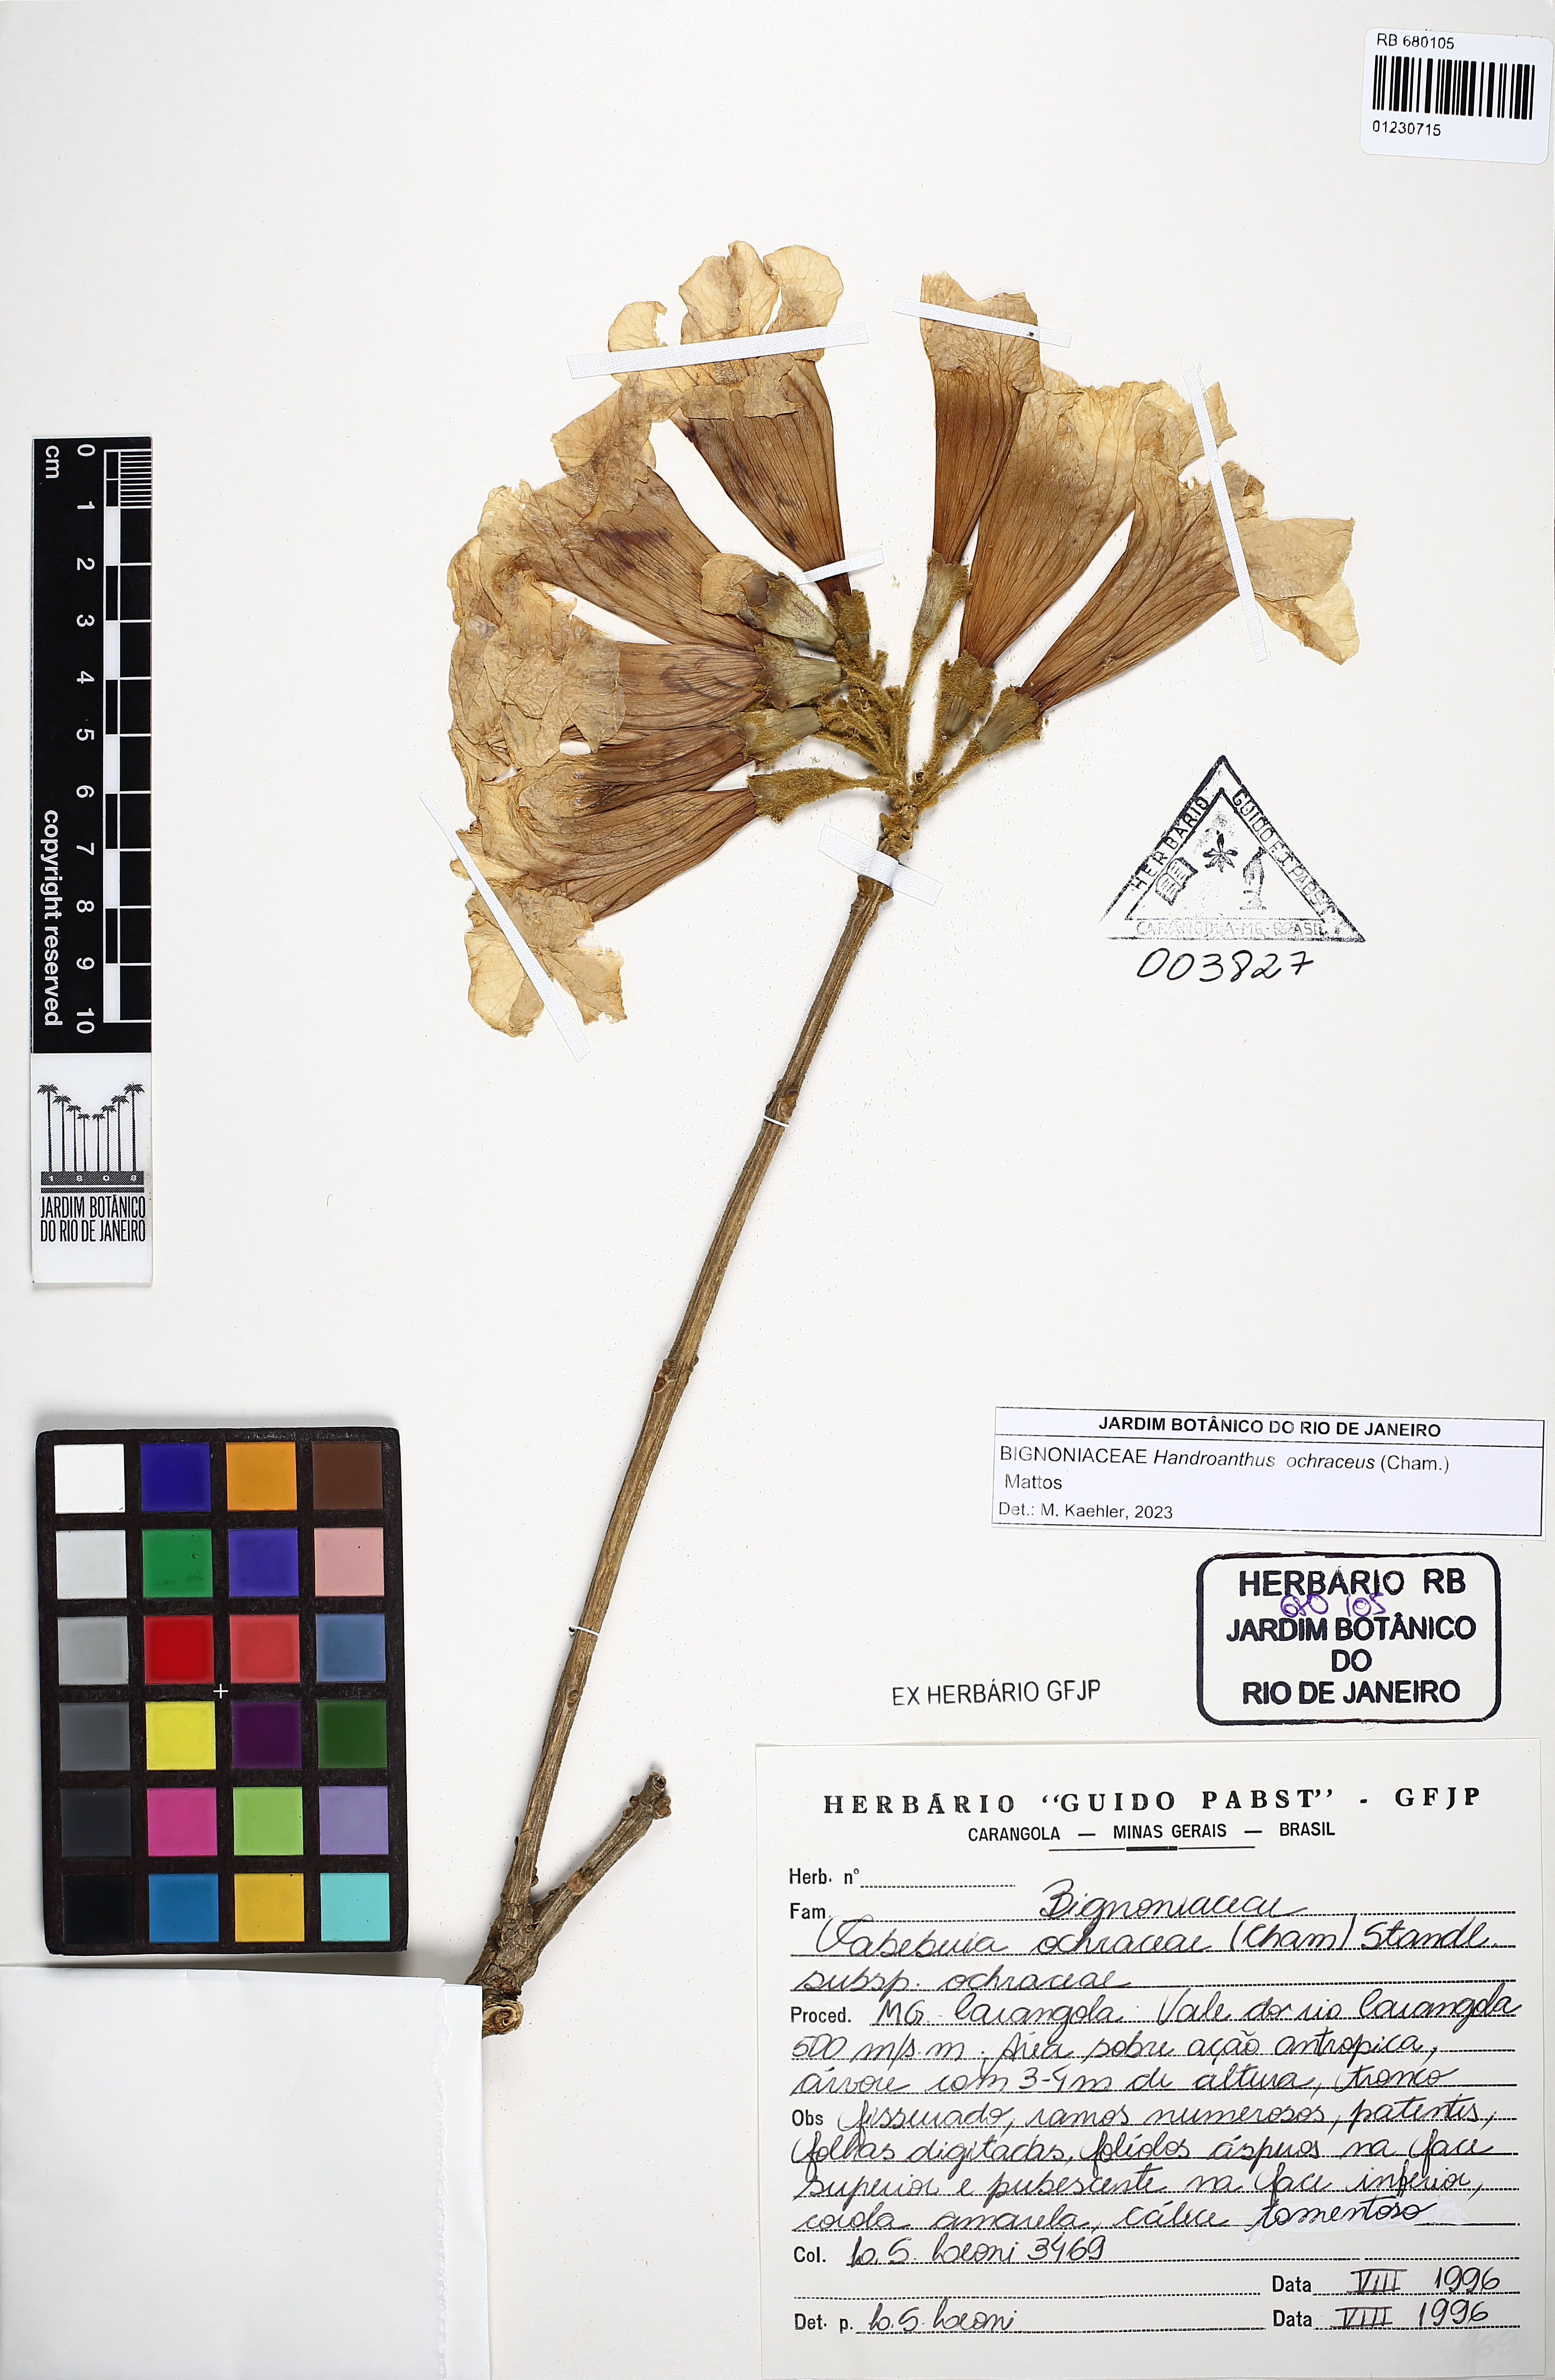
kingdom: Plantae
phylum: Tracheophyta
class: Magnoliopsida
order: Lamiales
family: Bignoniaceae
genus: Handroanthus
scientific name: Handroanthus ochraceus
